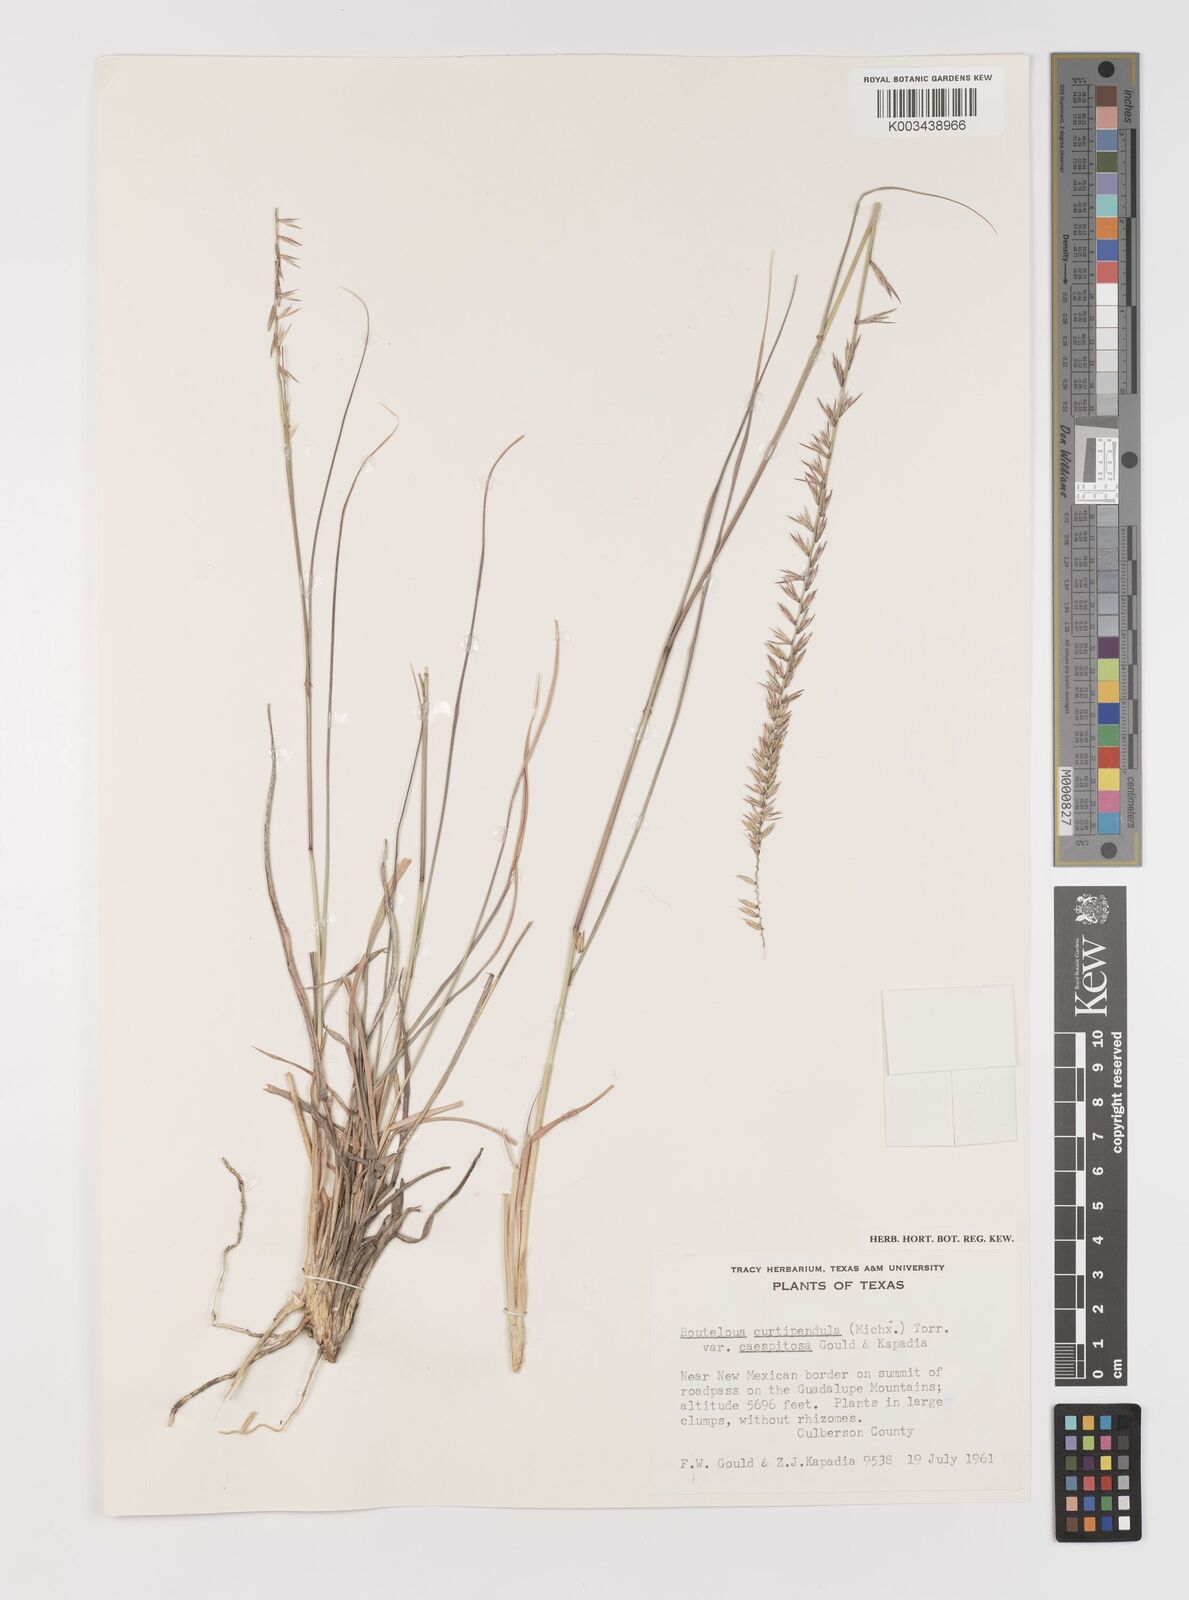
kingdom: Plantae
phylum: Tracheophyta
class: Liliopsida
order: Poales
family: Poaceae
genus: Bouteloua
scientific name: Bouteloua curtipendula
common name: Side-oats grama
